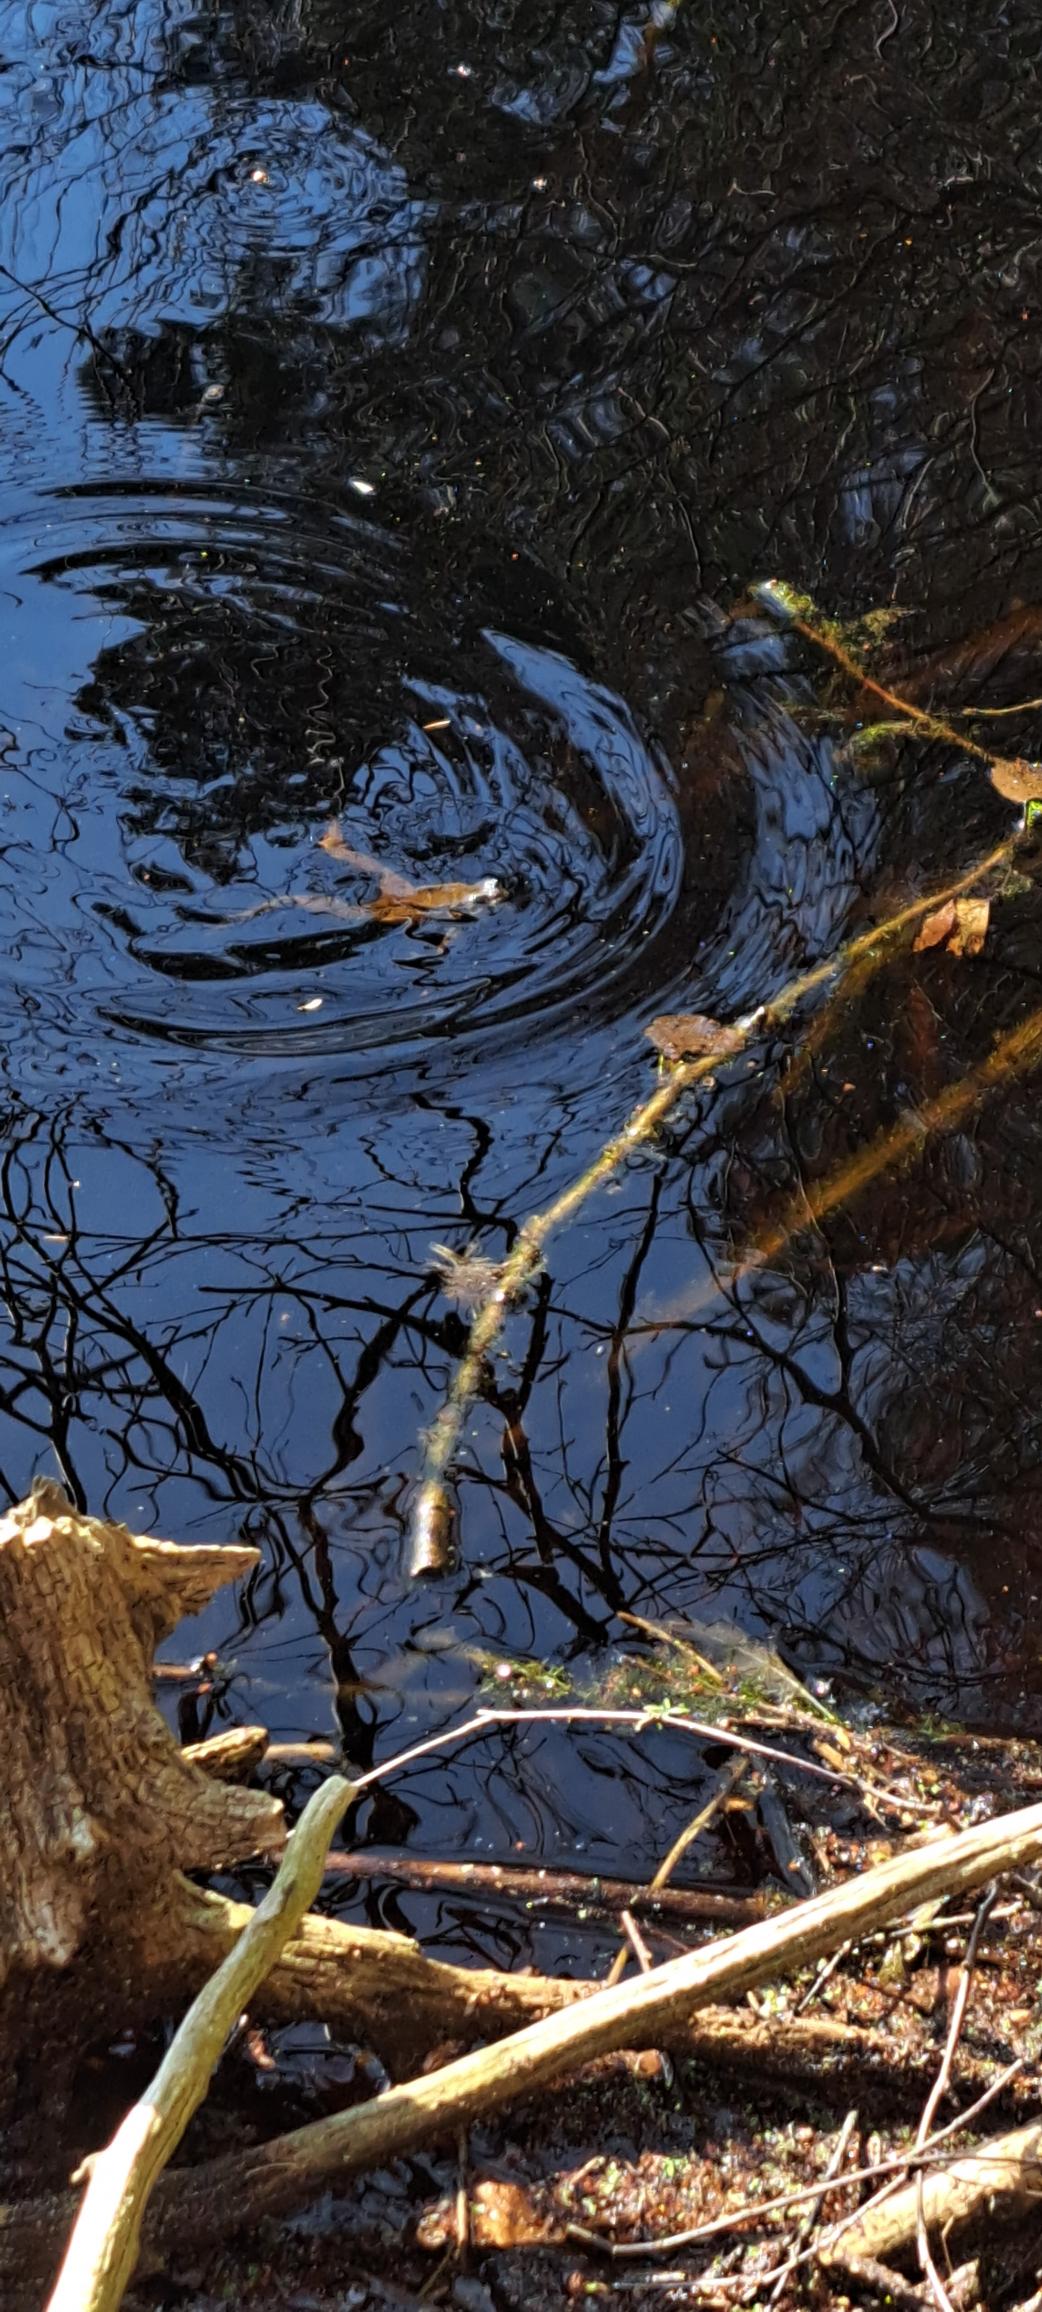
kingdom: Animalia
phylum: Chordata
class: Amphibia
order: Anura
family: Bufonidae
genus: Bufo
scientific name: Bufo bufo
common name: Skrubtudse
